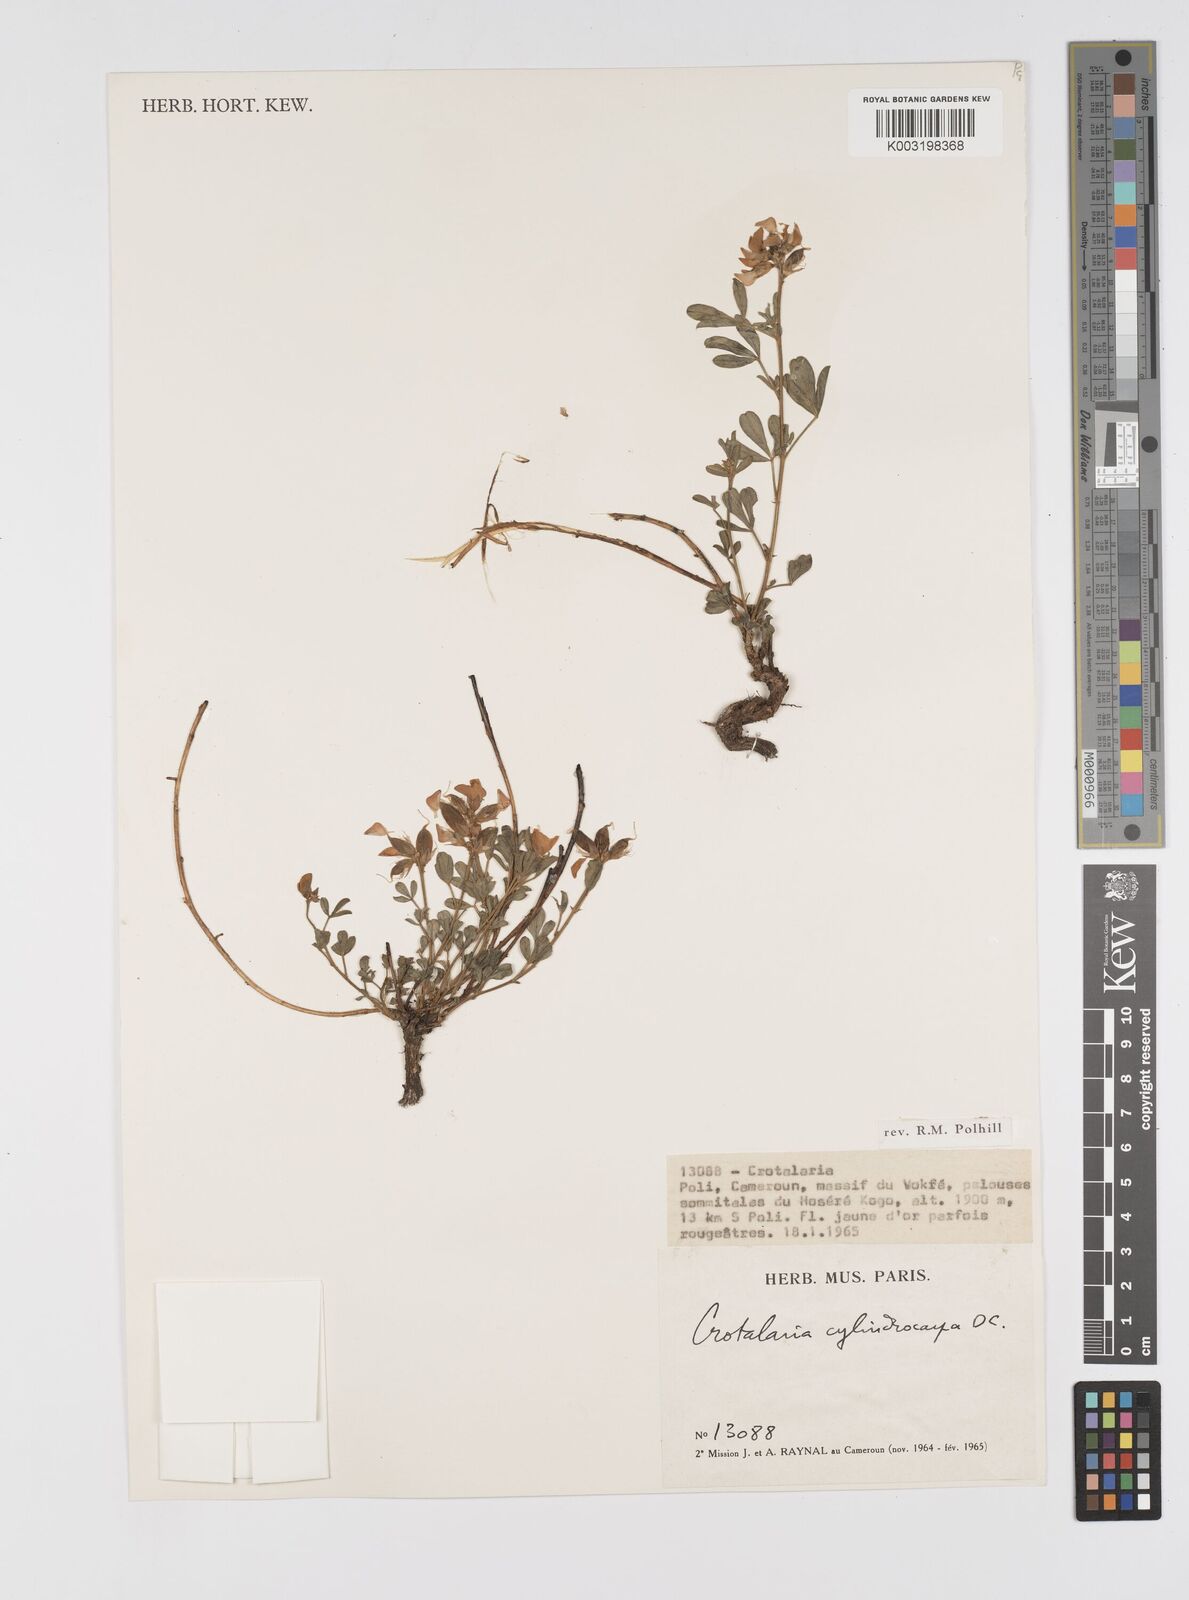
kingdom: Plantae
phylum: Tracheophyta
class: Magnoliopsida
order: Fabales
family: Fabaceae
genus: Crotalaria
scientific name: Crotalaria cylindrocarpa
